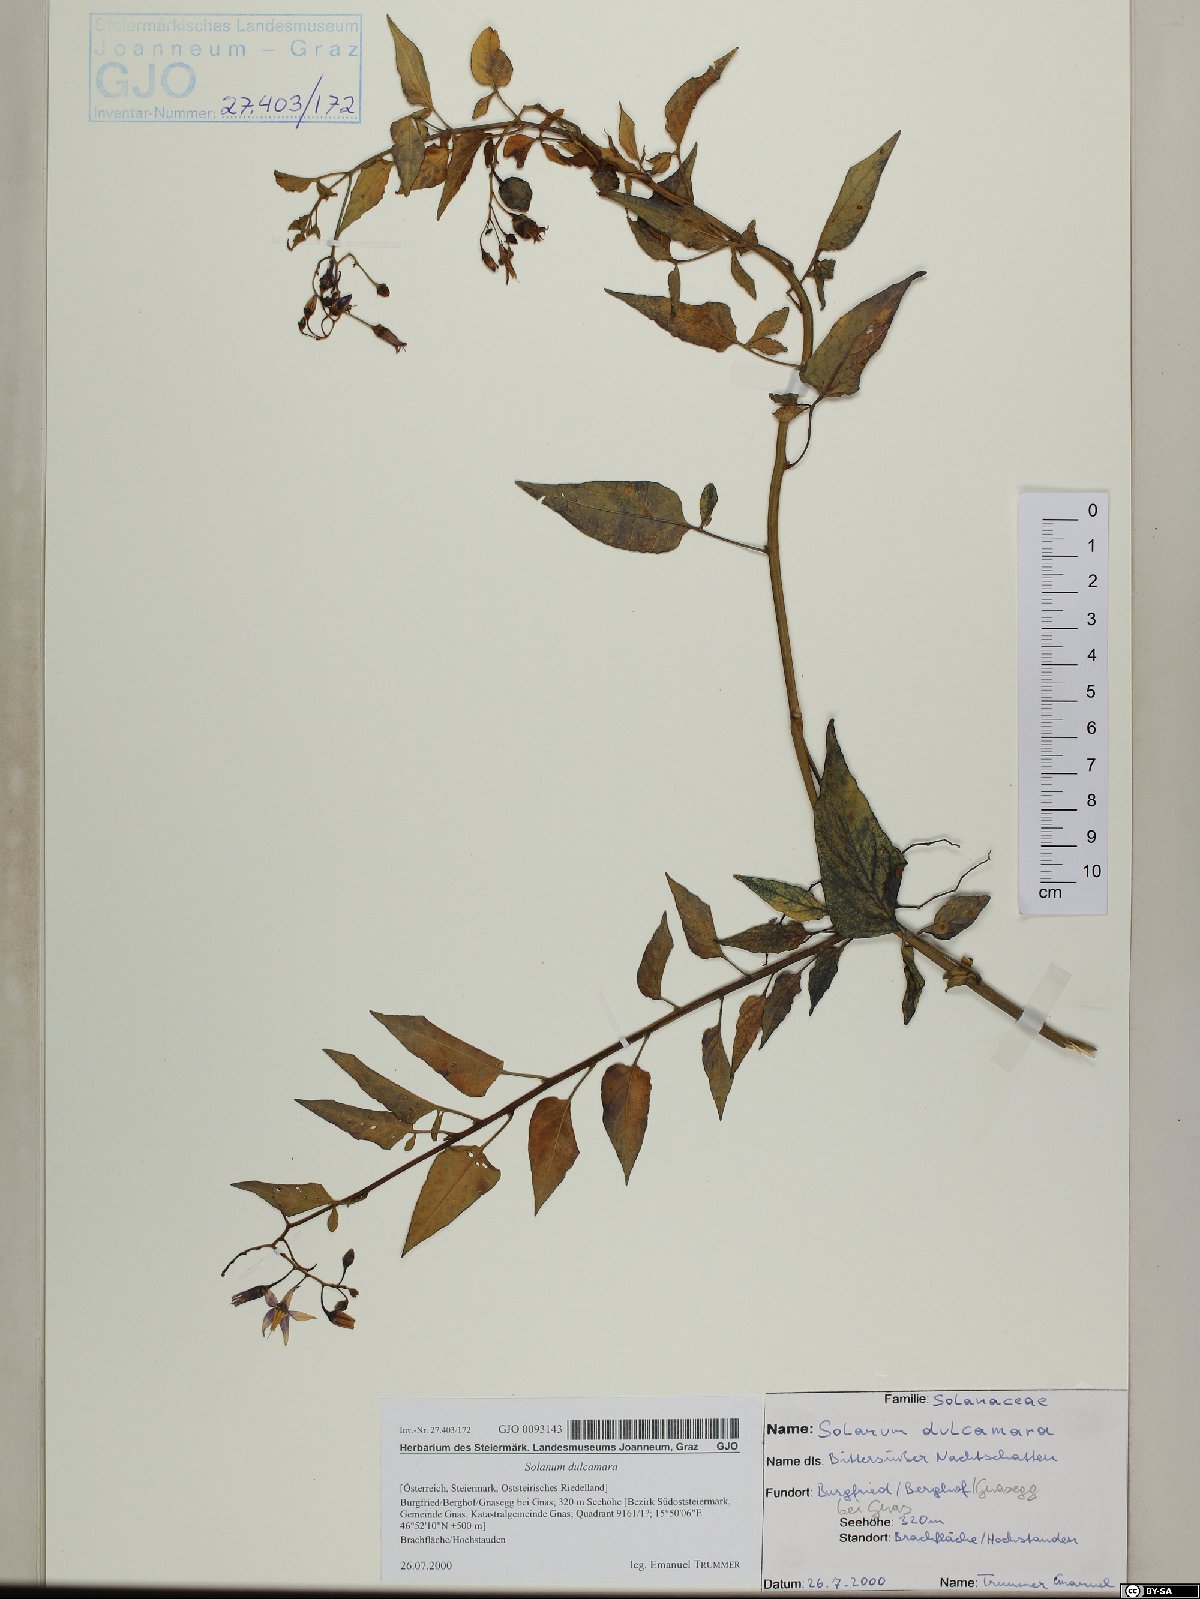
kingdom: Plantae
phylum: Tracheophyta
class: Magnoliopsida
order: Solanales
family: Solanaceae
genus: Solanum
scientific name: Solanum dulcamara
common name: Climbing nightshade
